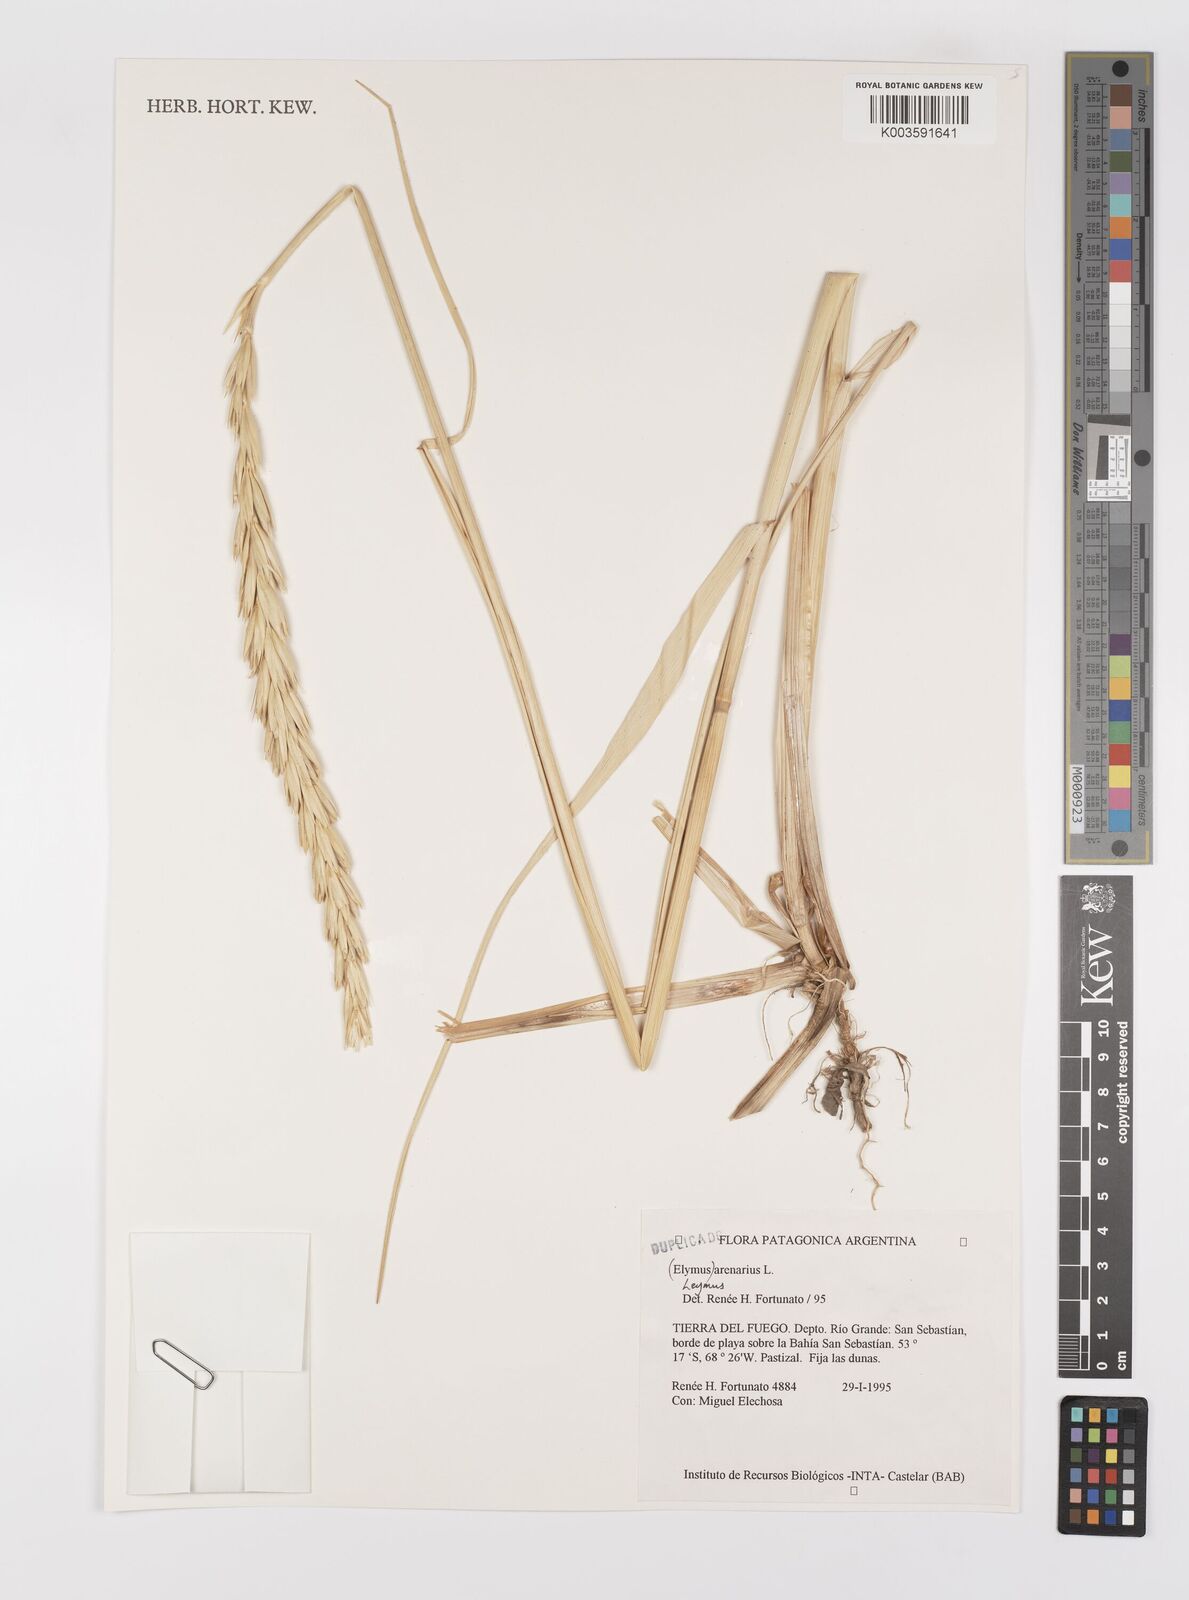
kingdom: Plantae
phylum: Tracheophyta
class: Liliopsida
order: Poales
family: Poaceae
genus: Leymus
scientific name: Leymus arenarius
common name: Lyme-grass
